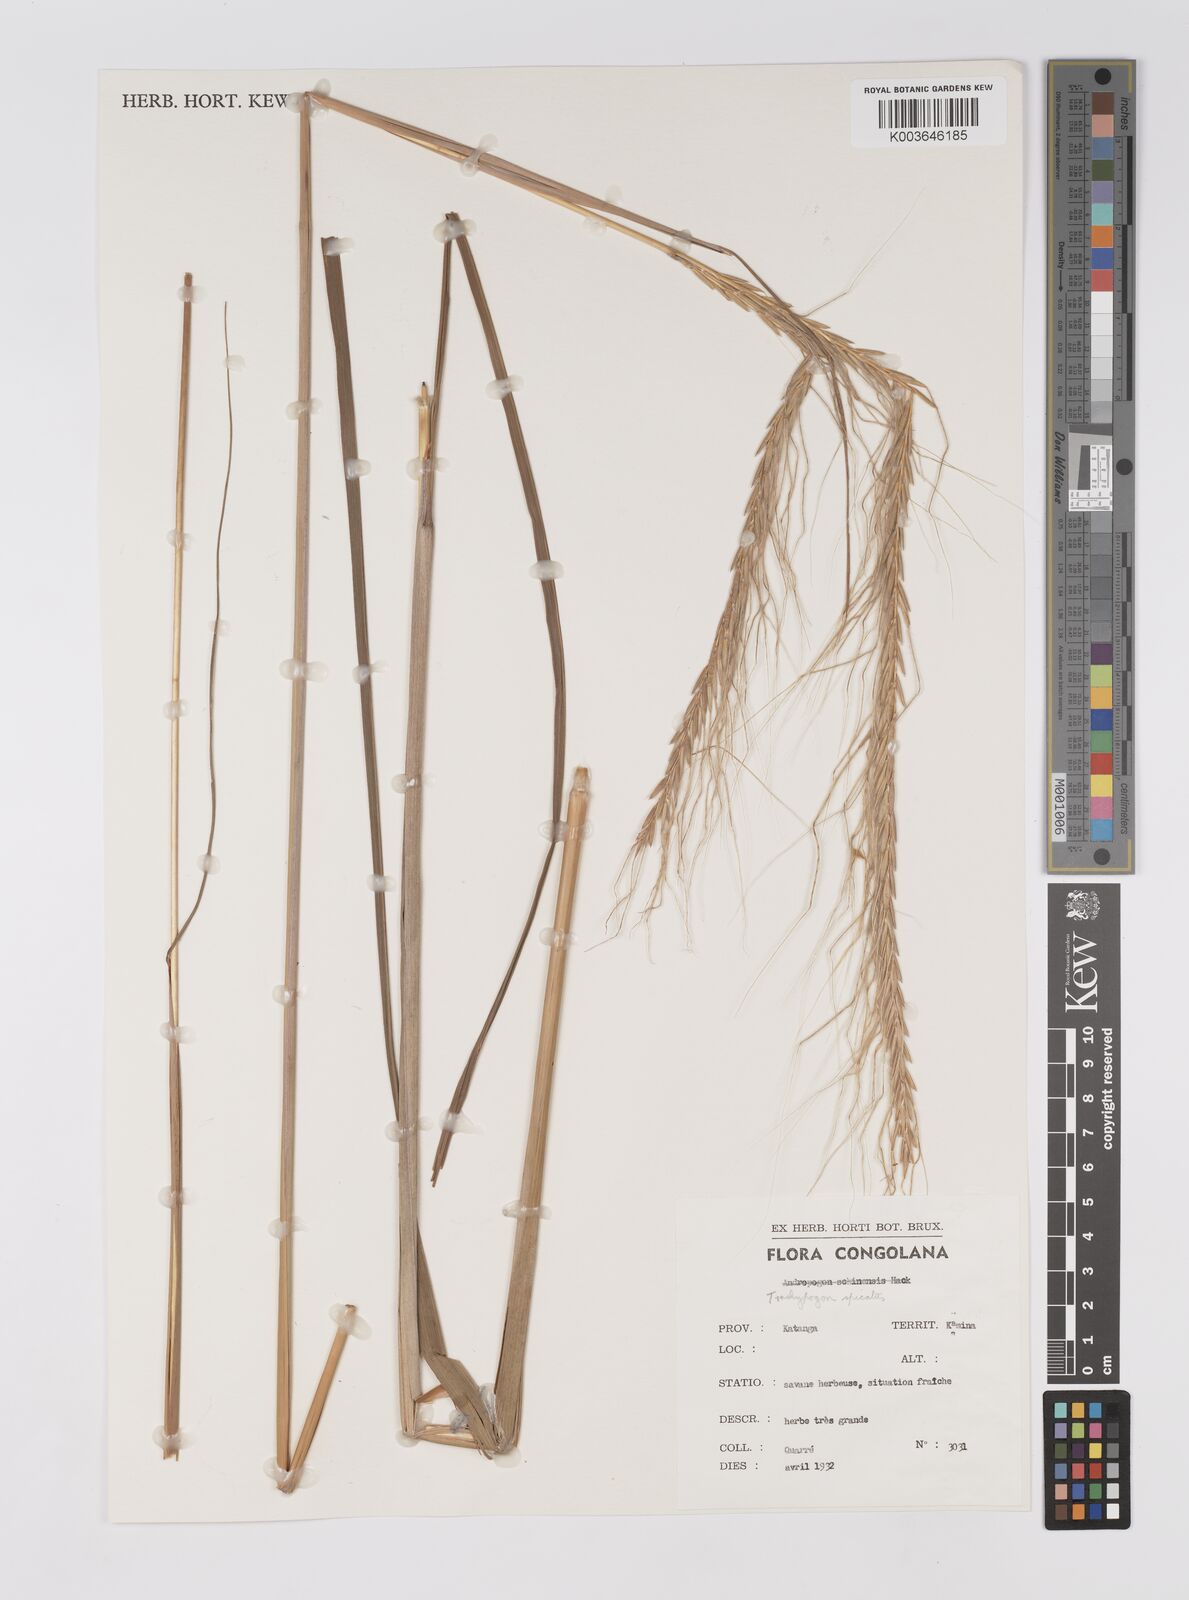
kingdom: Plantae
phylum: Tracheophyta
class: Liliopsida
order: Poales
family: Poaceae
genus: Trachypogon
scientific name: Trachypogon spicatus
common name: Crinkle-awn
